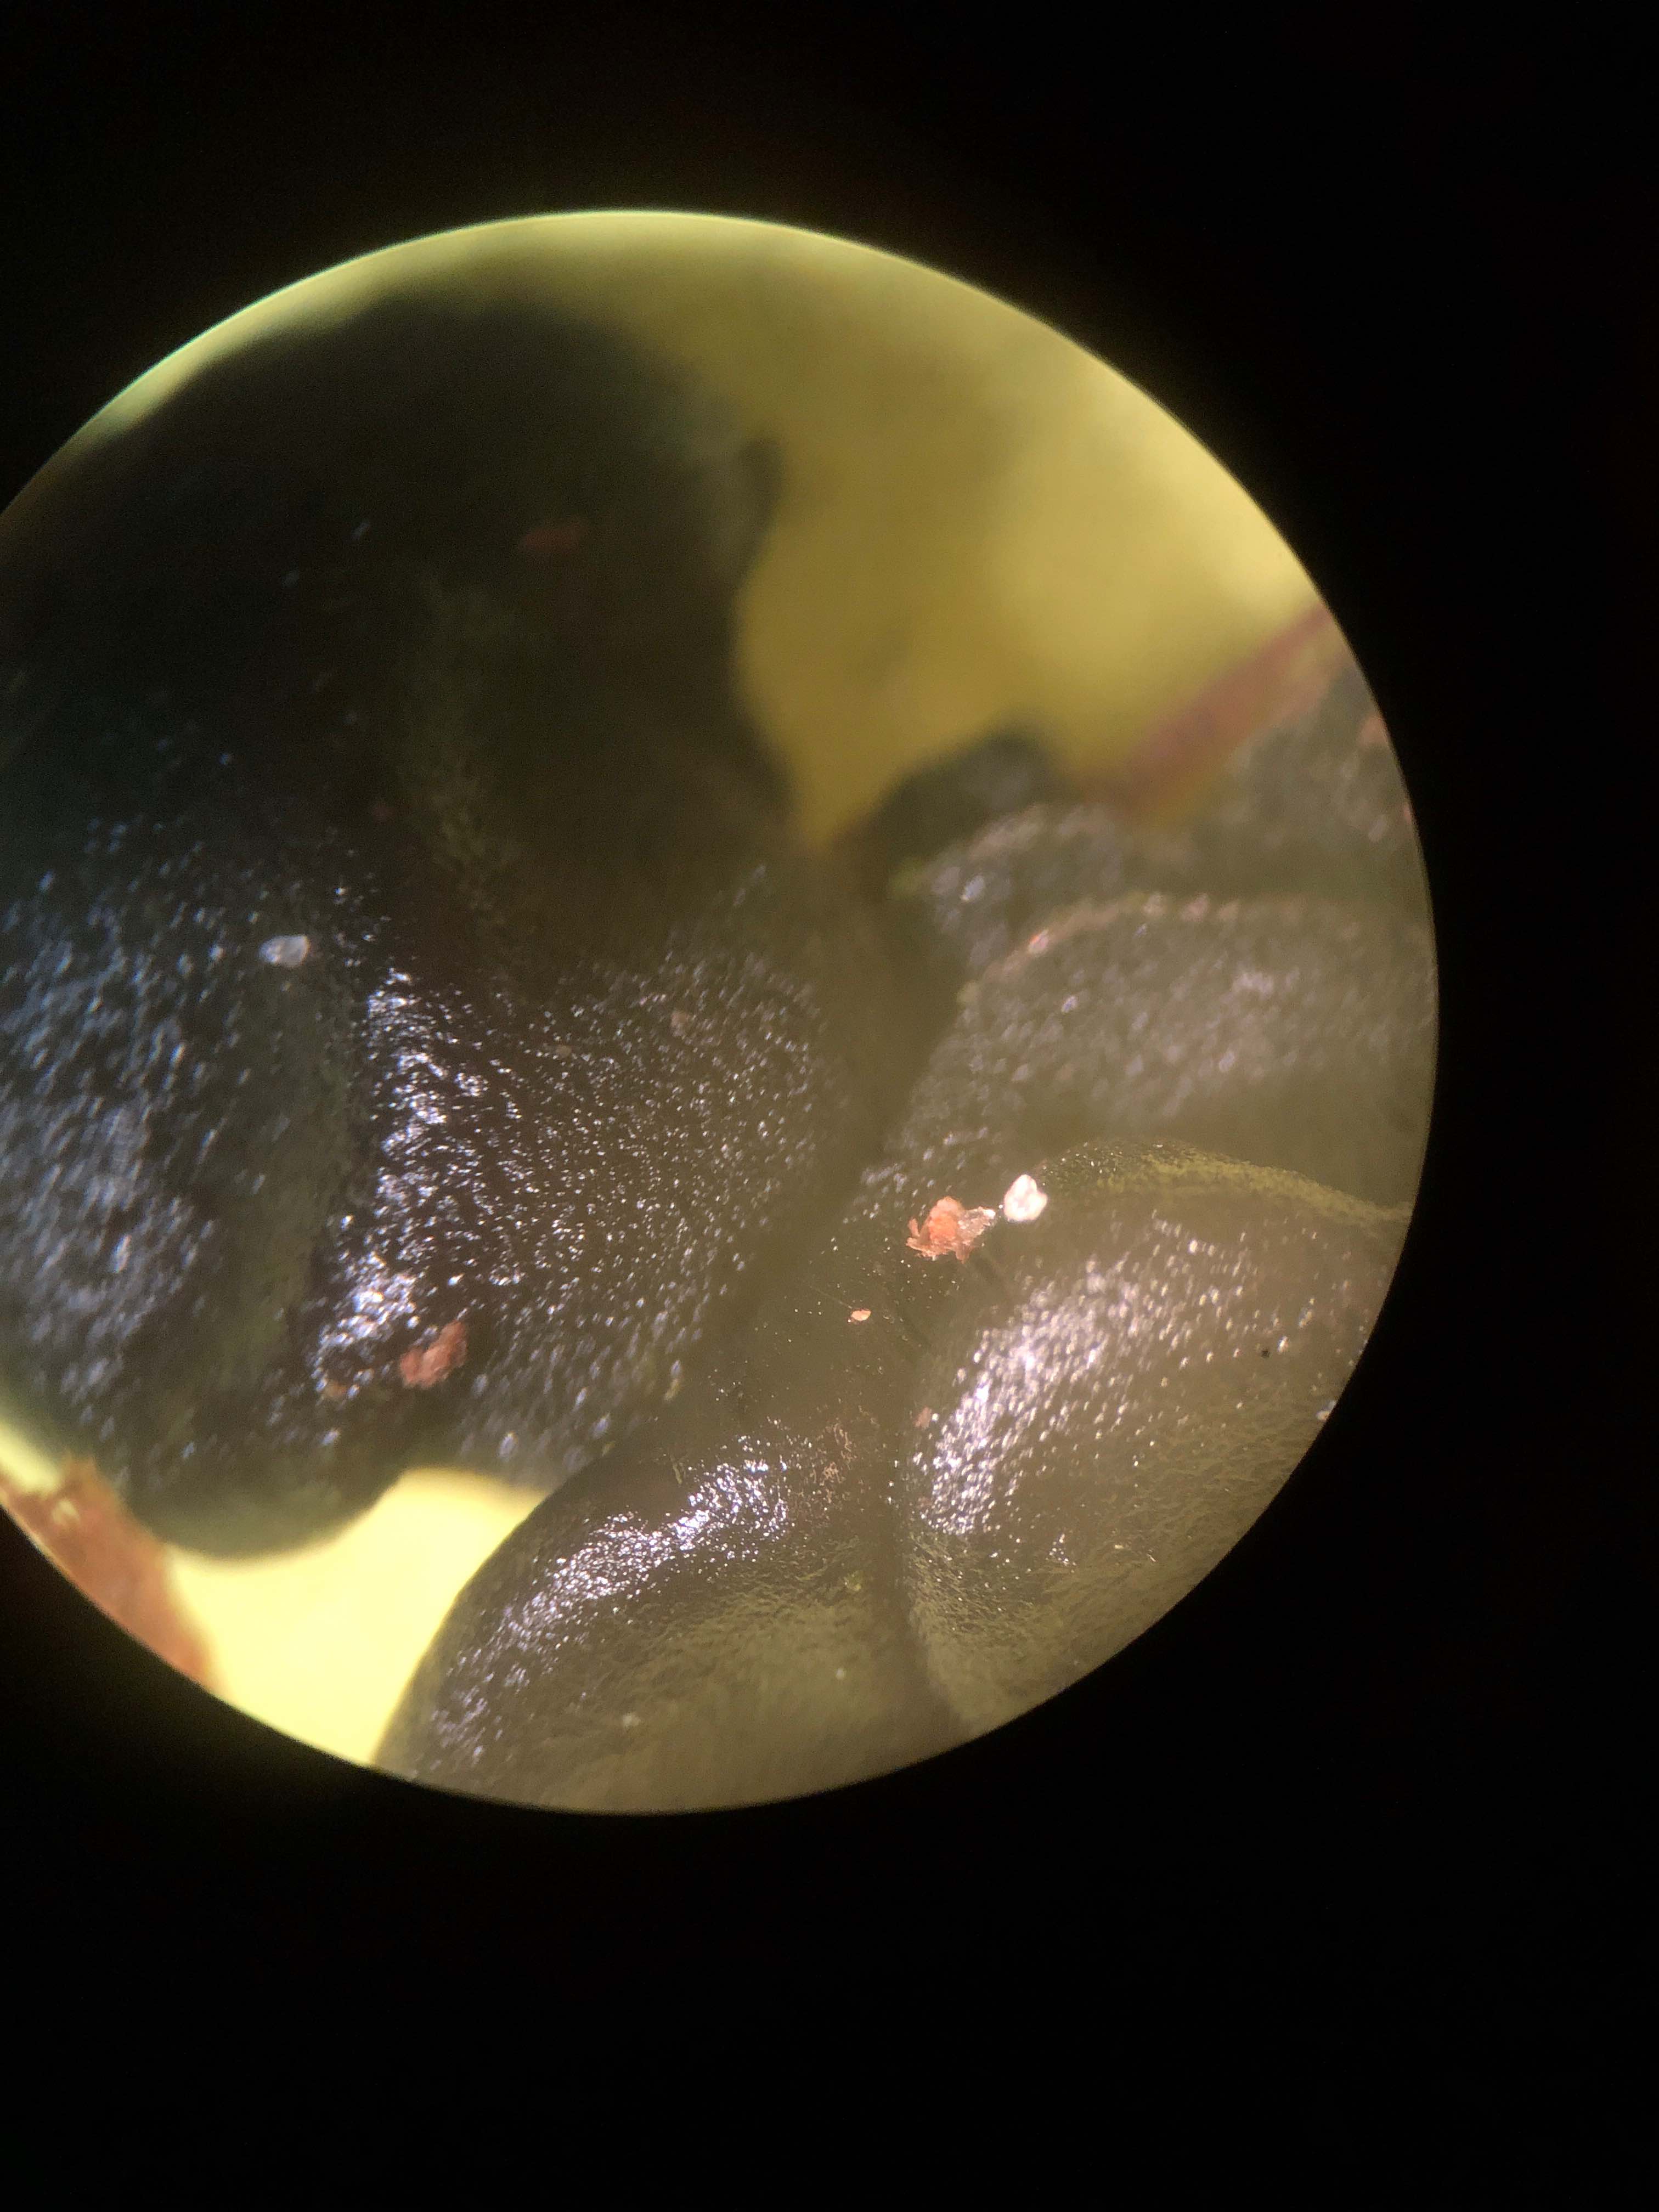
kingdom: Fungi
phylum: Basidiomycota
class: Agaricomycetes
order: Auriculariales
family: Auriculariaceae
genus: Exidia
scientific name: Exidia nigricans
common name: almindelig bævretop
